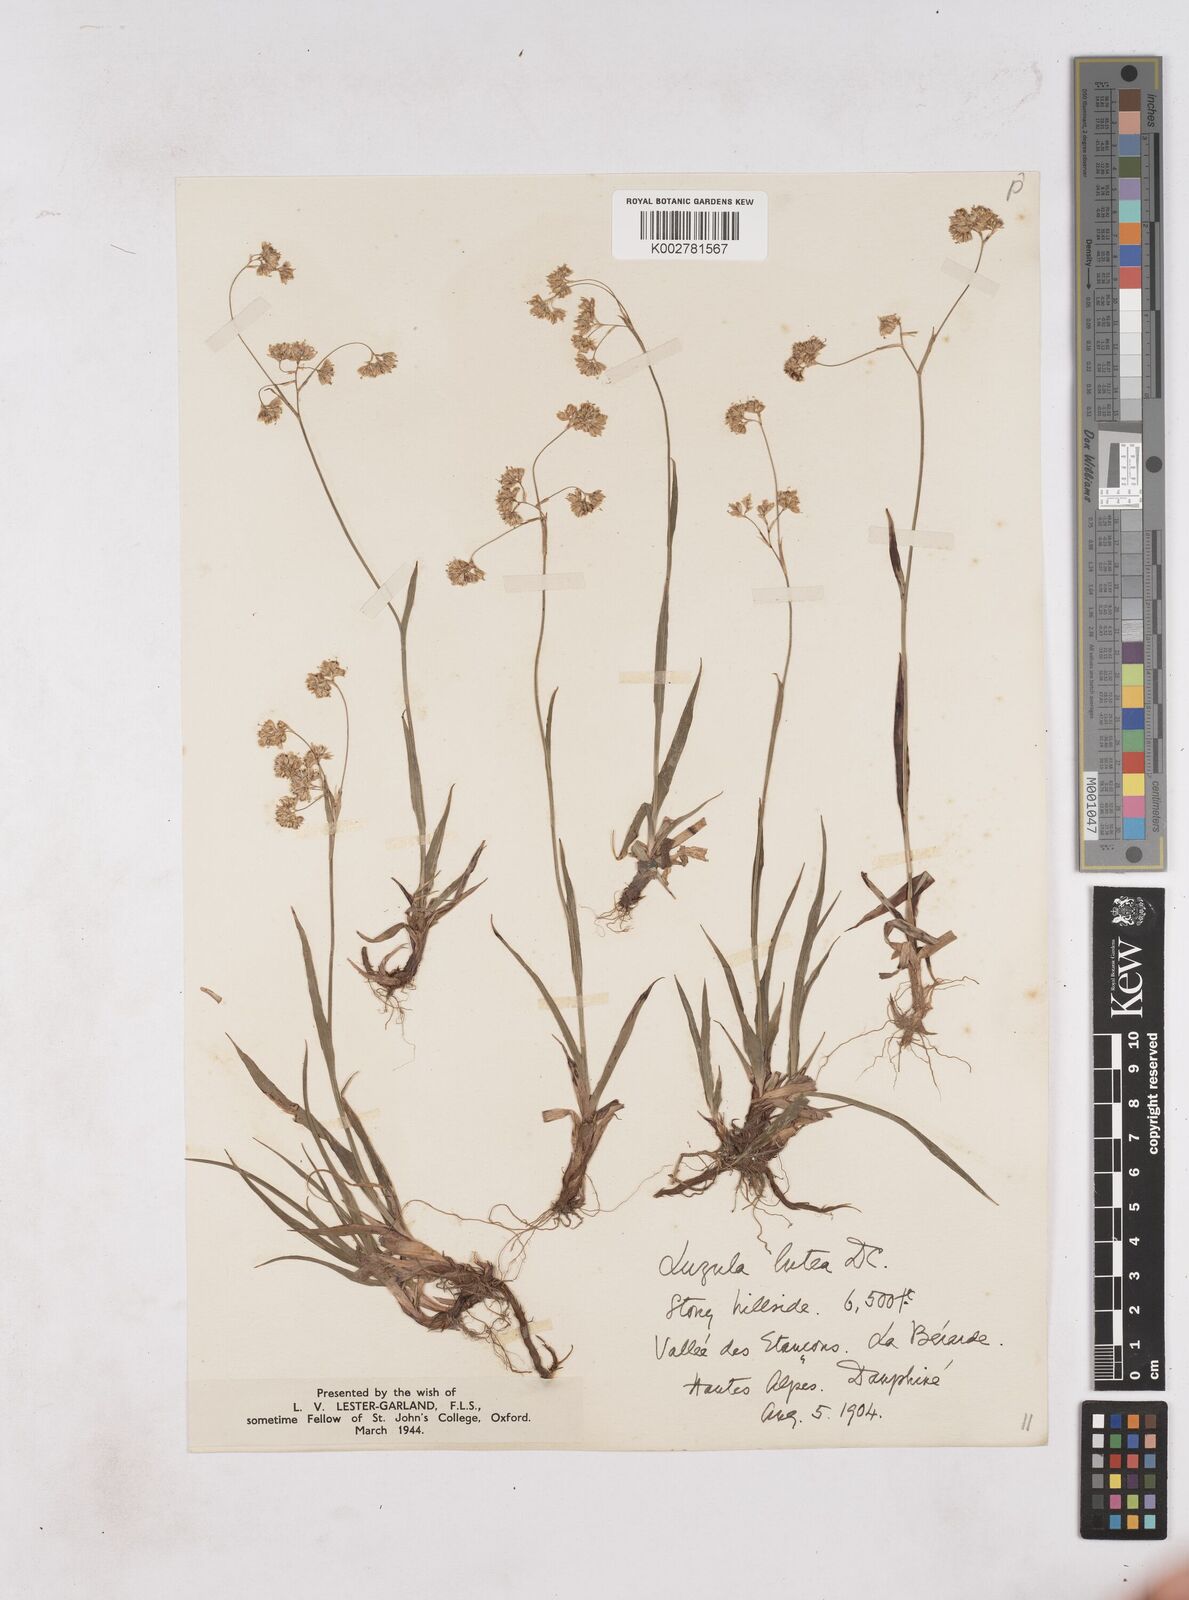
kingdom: Plantae
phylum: Tracheophyta
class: Liliopsida
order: Poales
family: Juncaceae
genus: Luzula
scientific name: Luzula lutea
